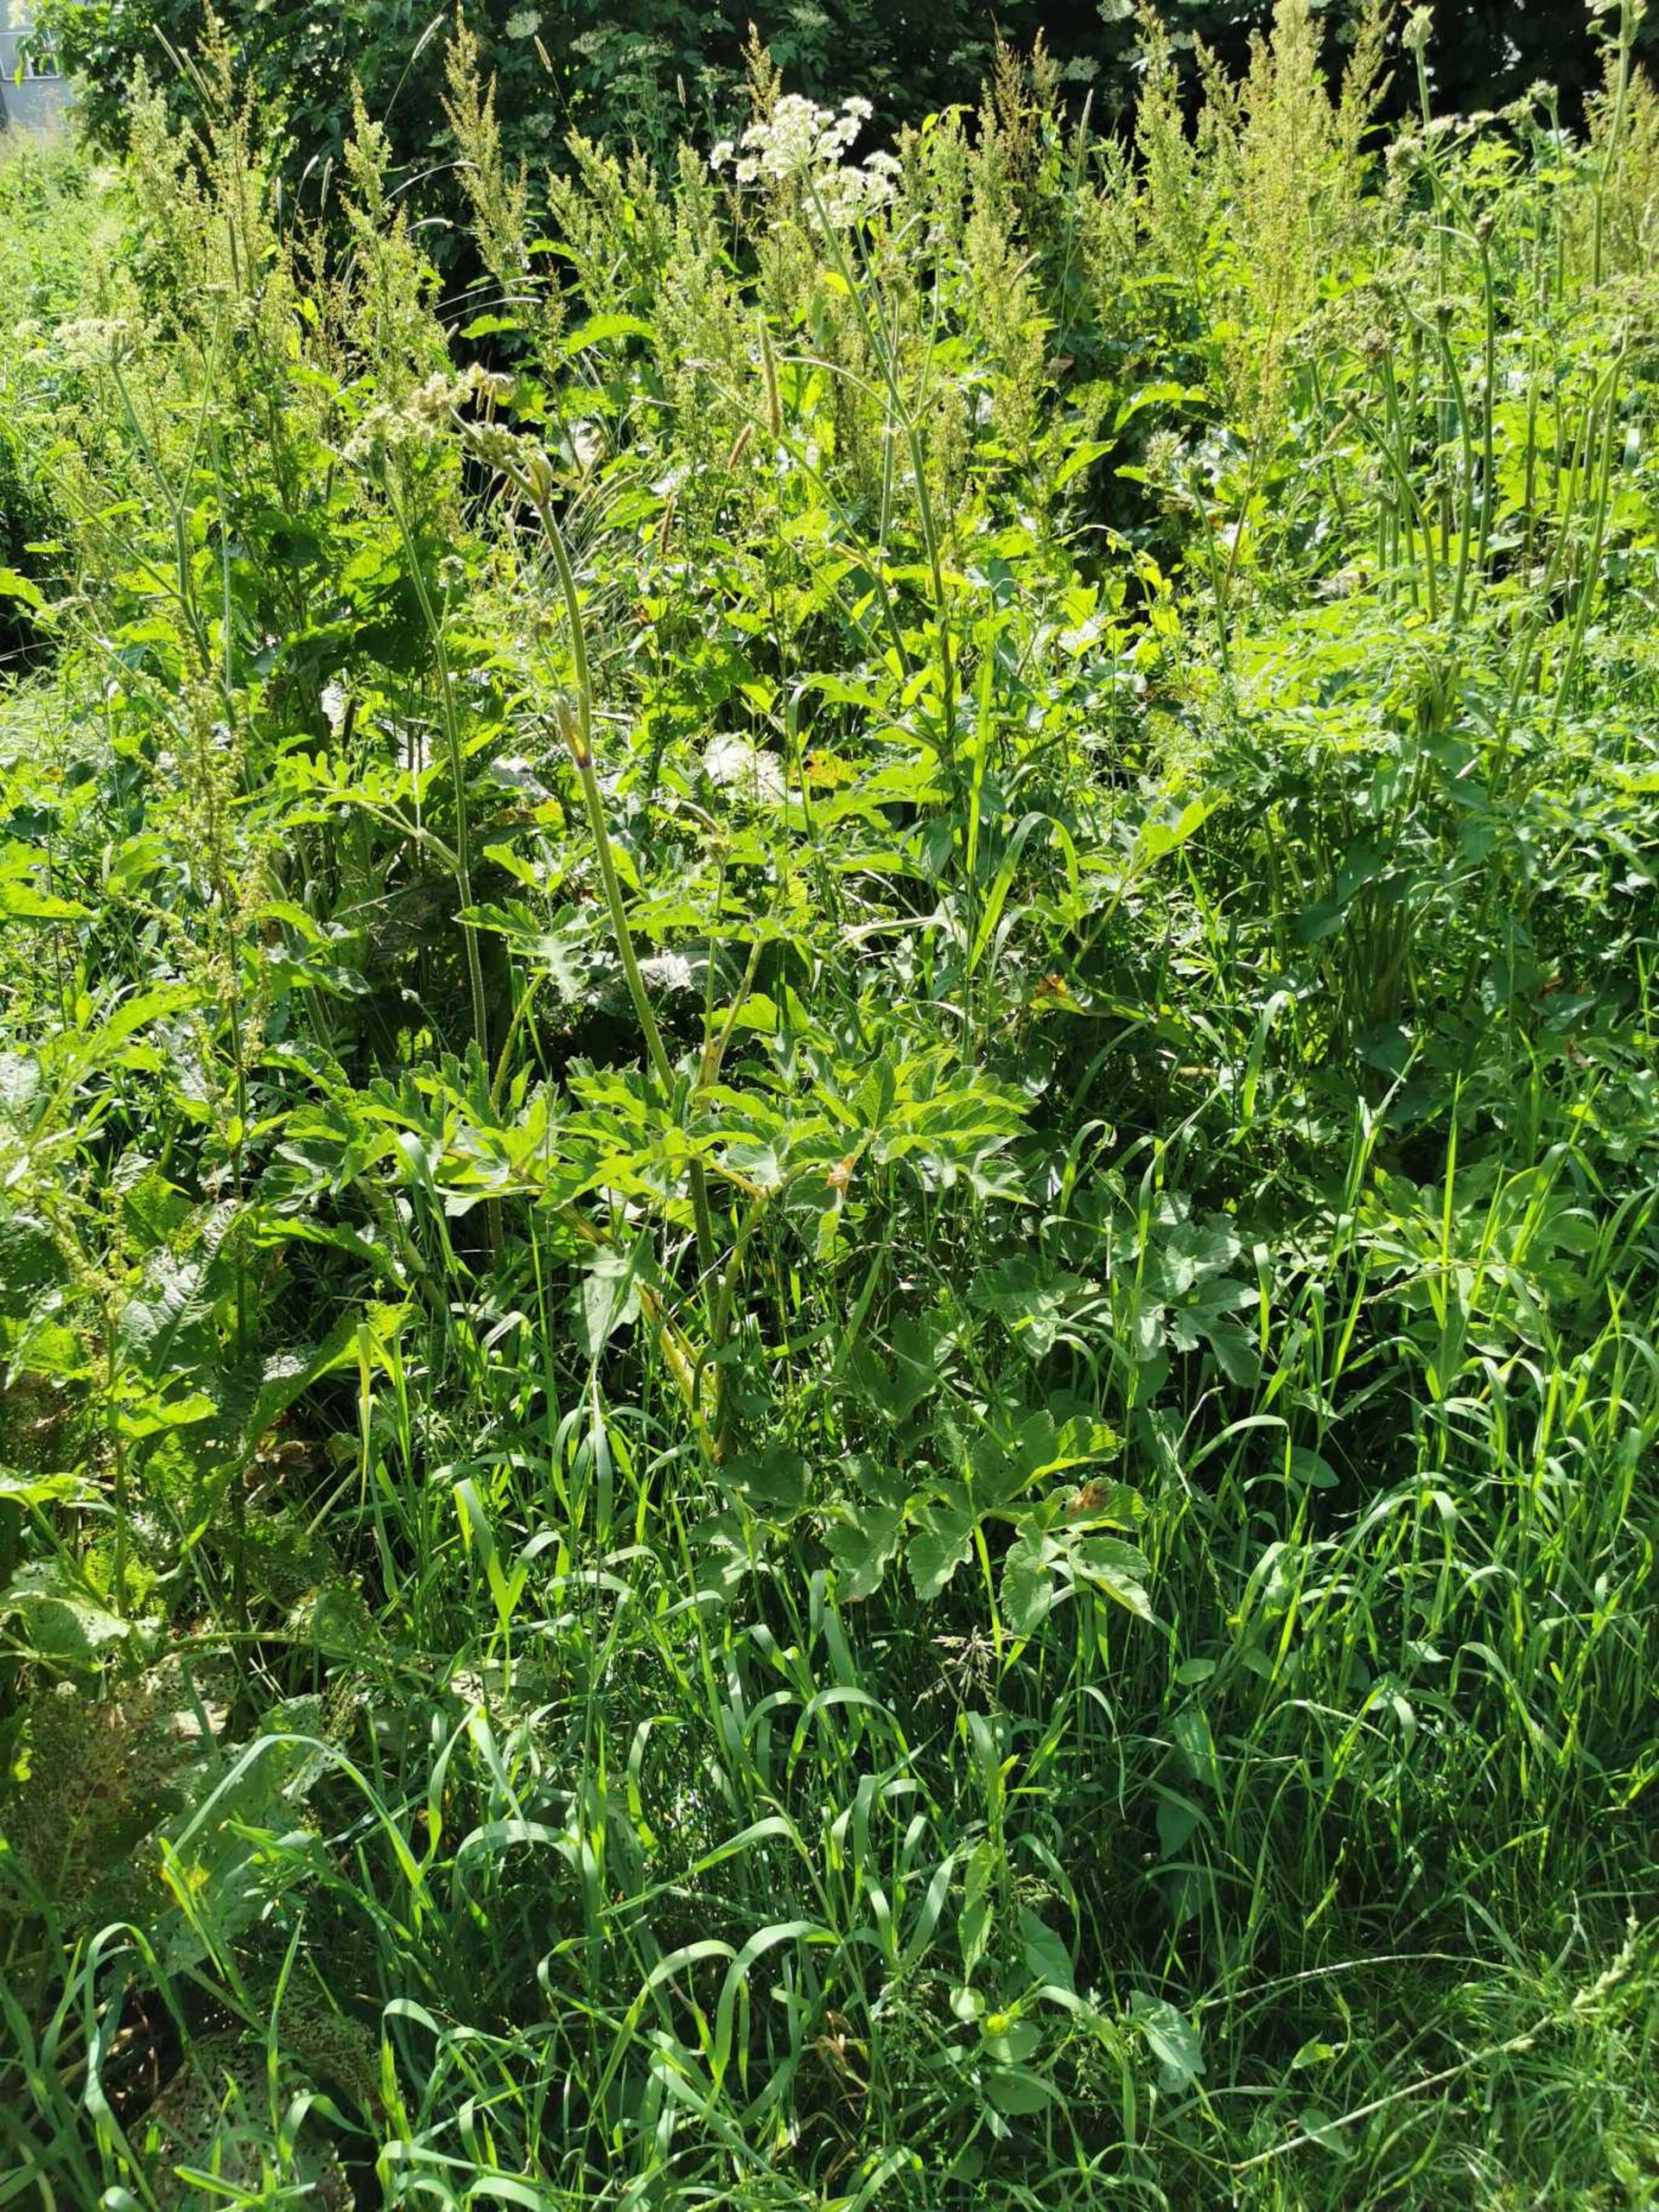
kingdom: Plantae
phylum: Tracheophyta
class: Magnoliopsida
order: Apiales
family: Apiaceae
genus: Heracleum
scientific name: Heracleum sphondylium
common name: Almindelig bjørneklo
